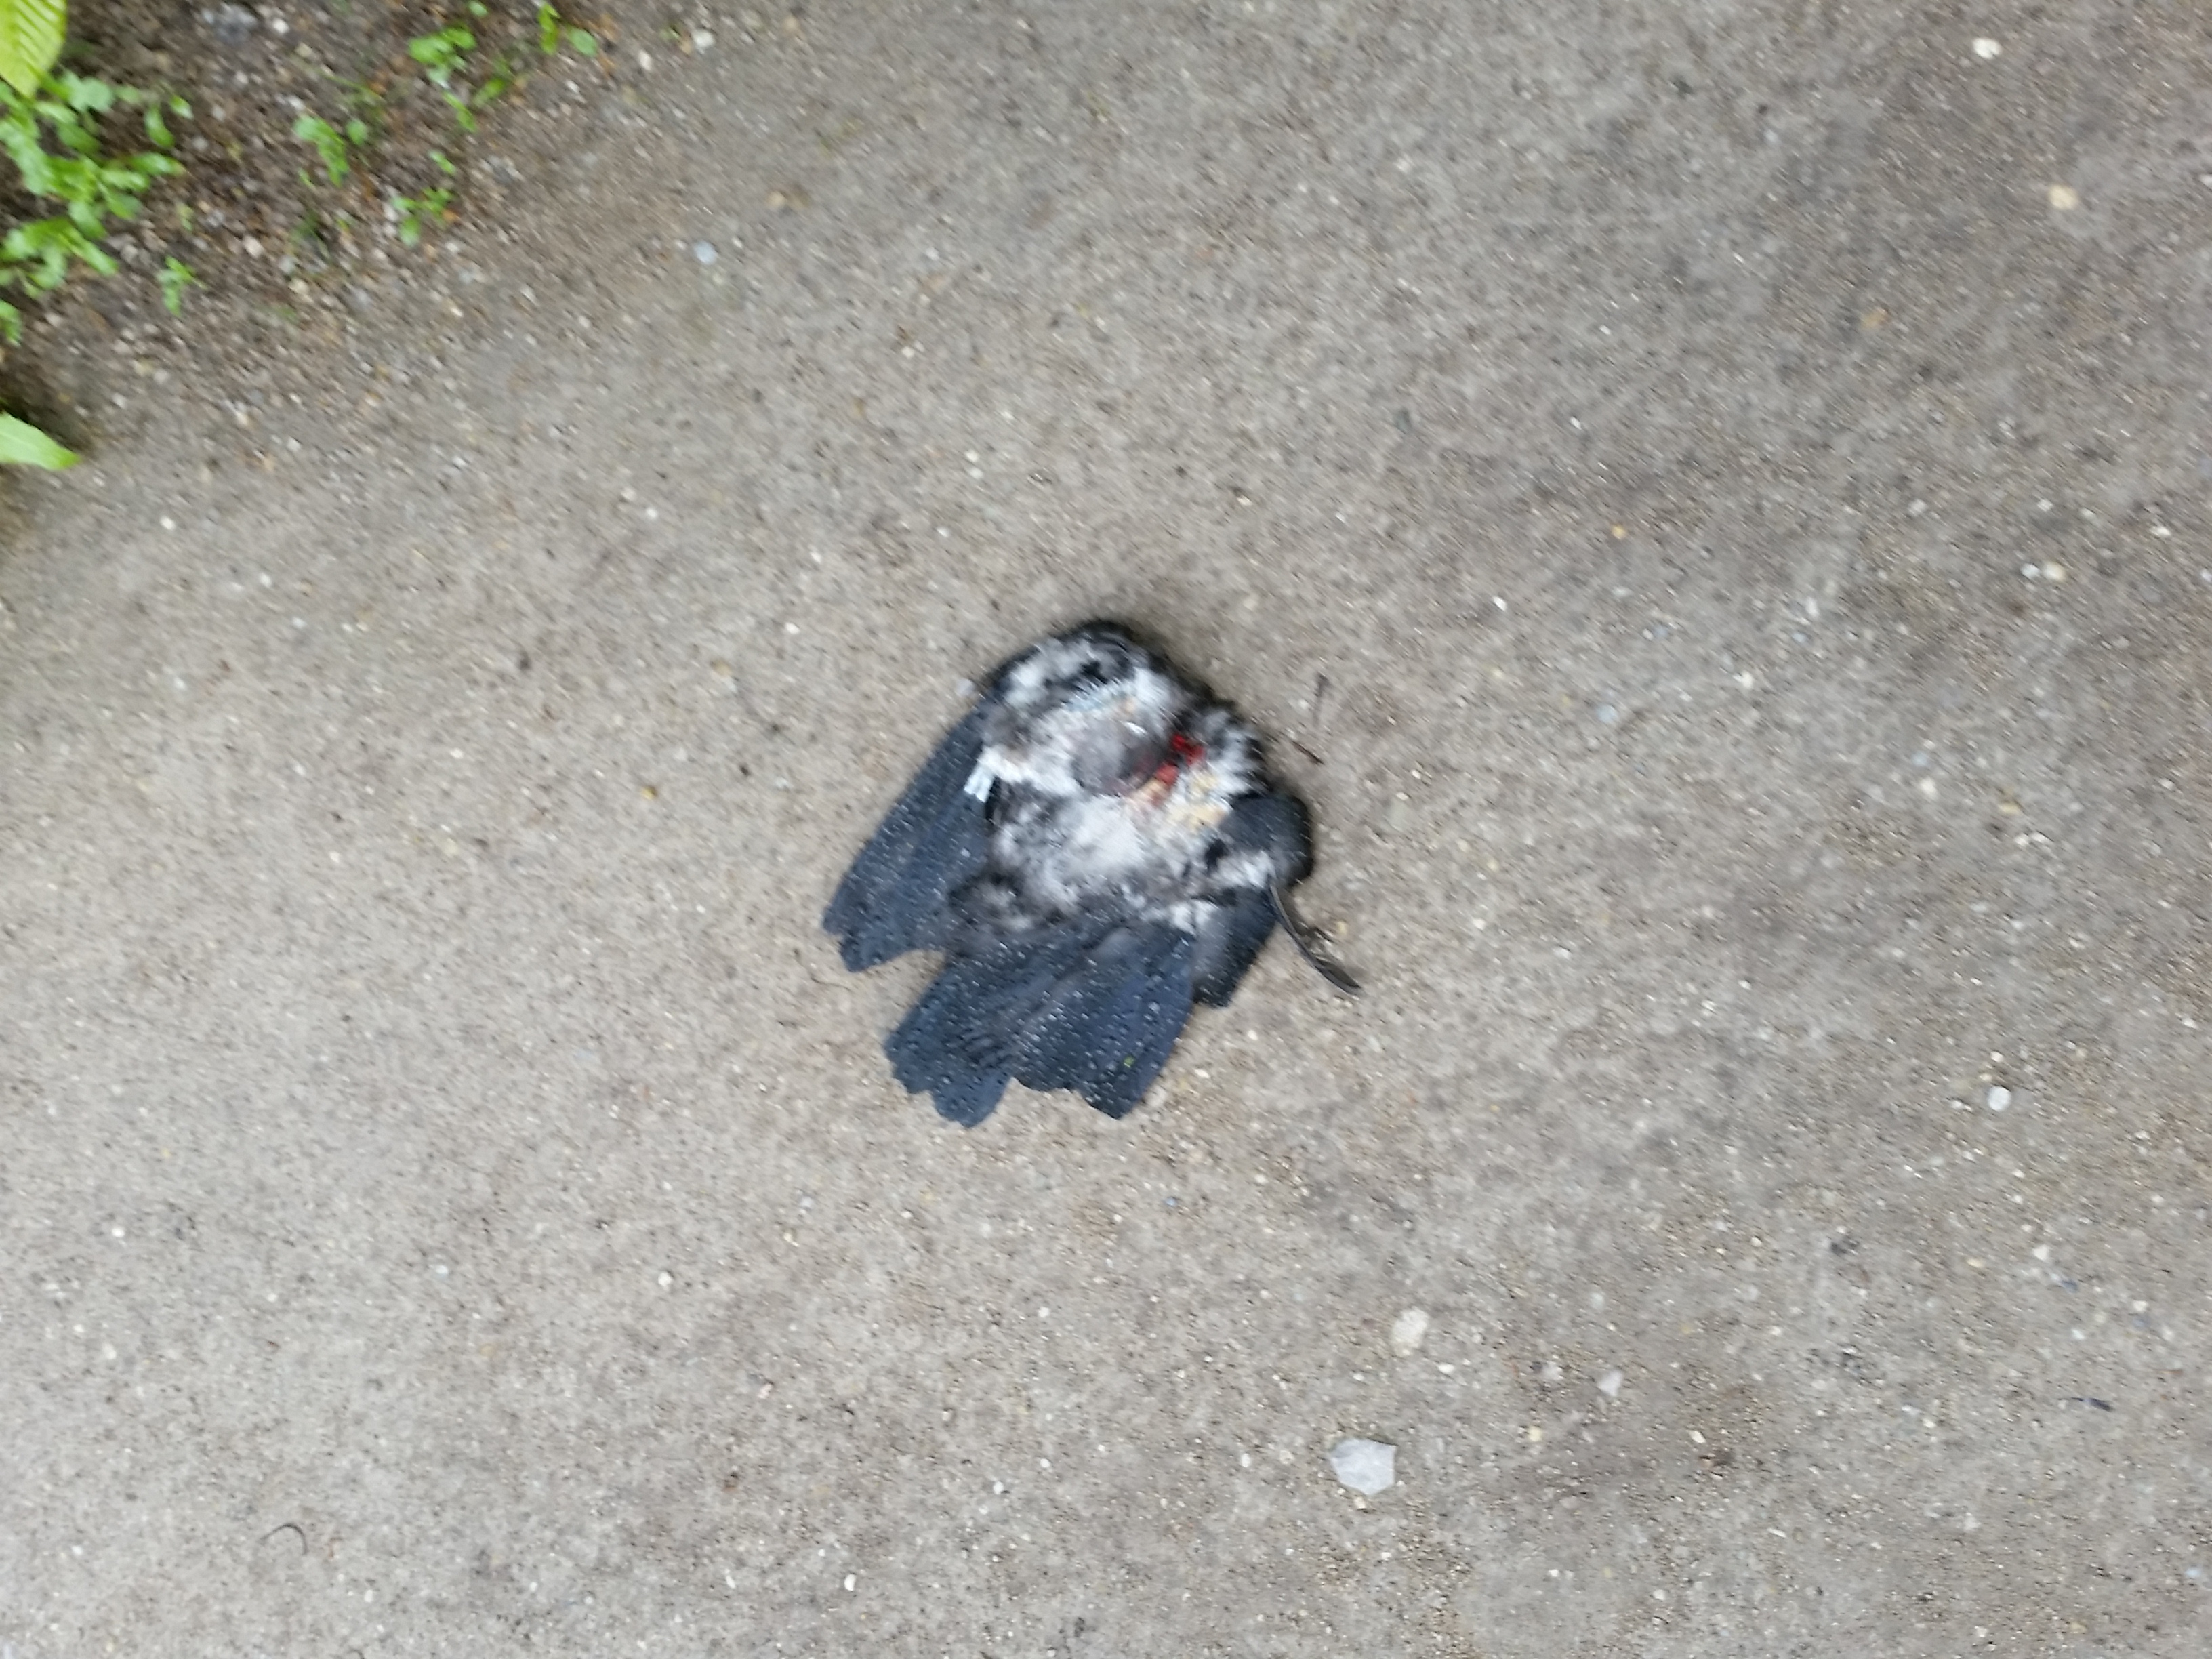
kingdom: Animalia
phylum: Chordata
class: Aves
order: Columbiformes
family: Columbidae
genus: Columba
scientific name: Columba livia
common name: Rock pigeon
